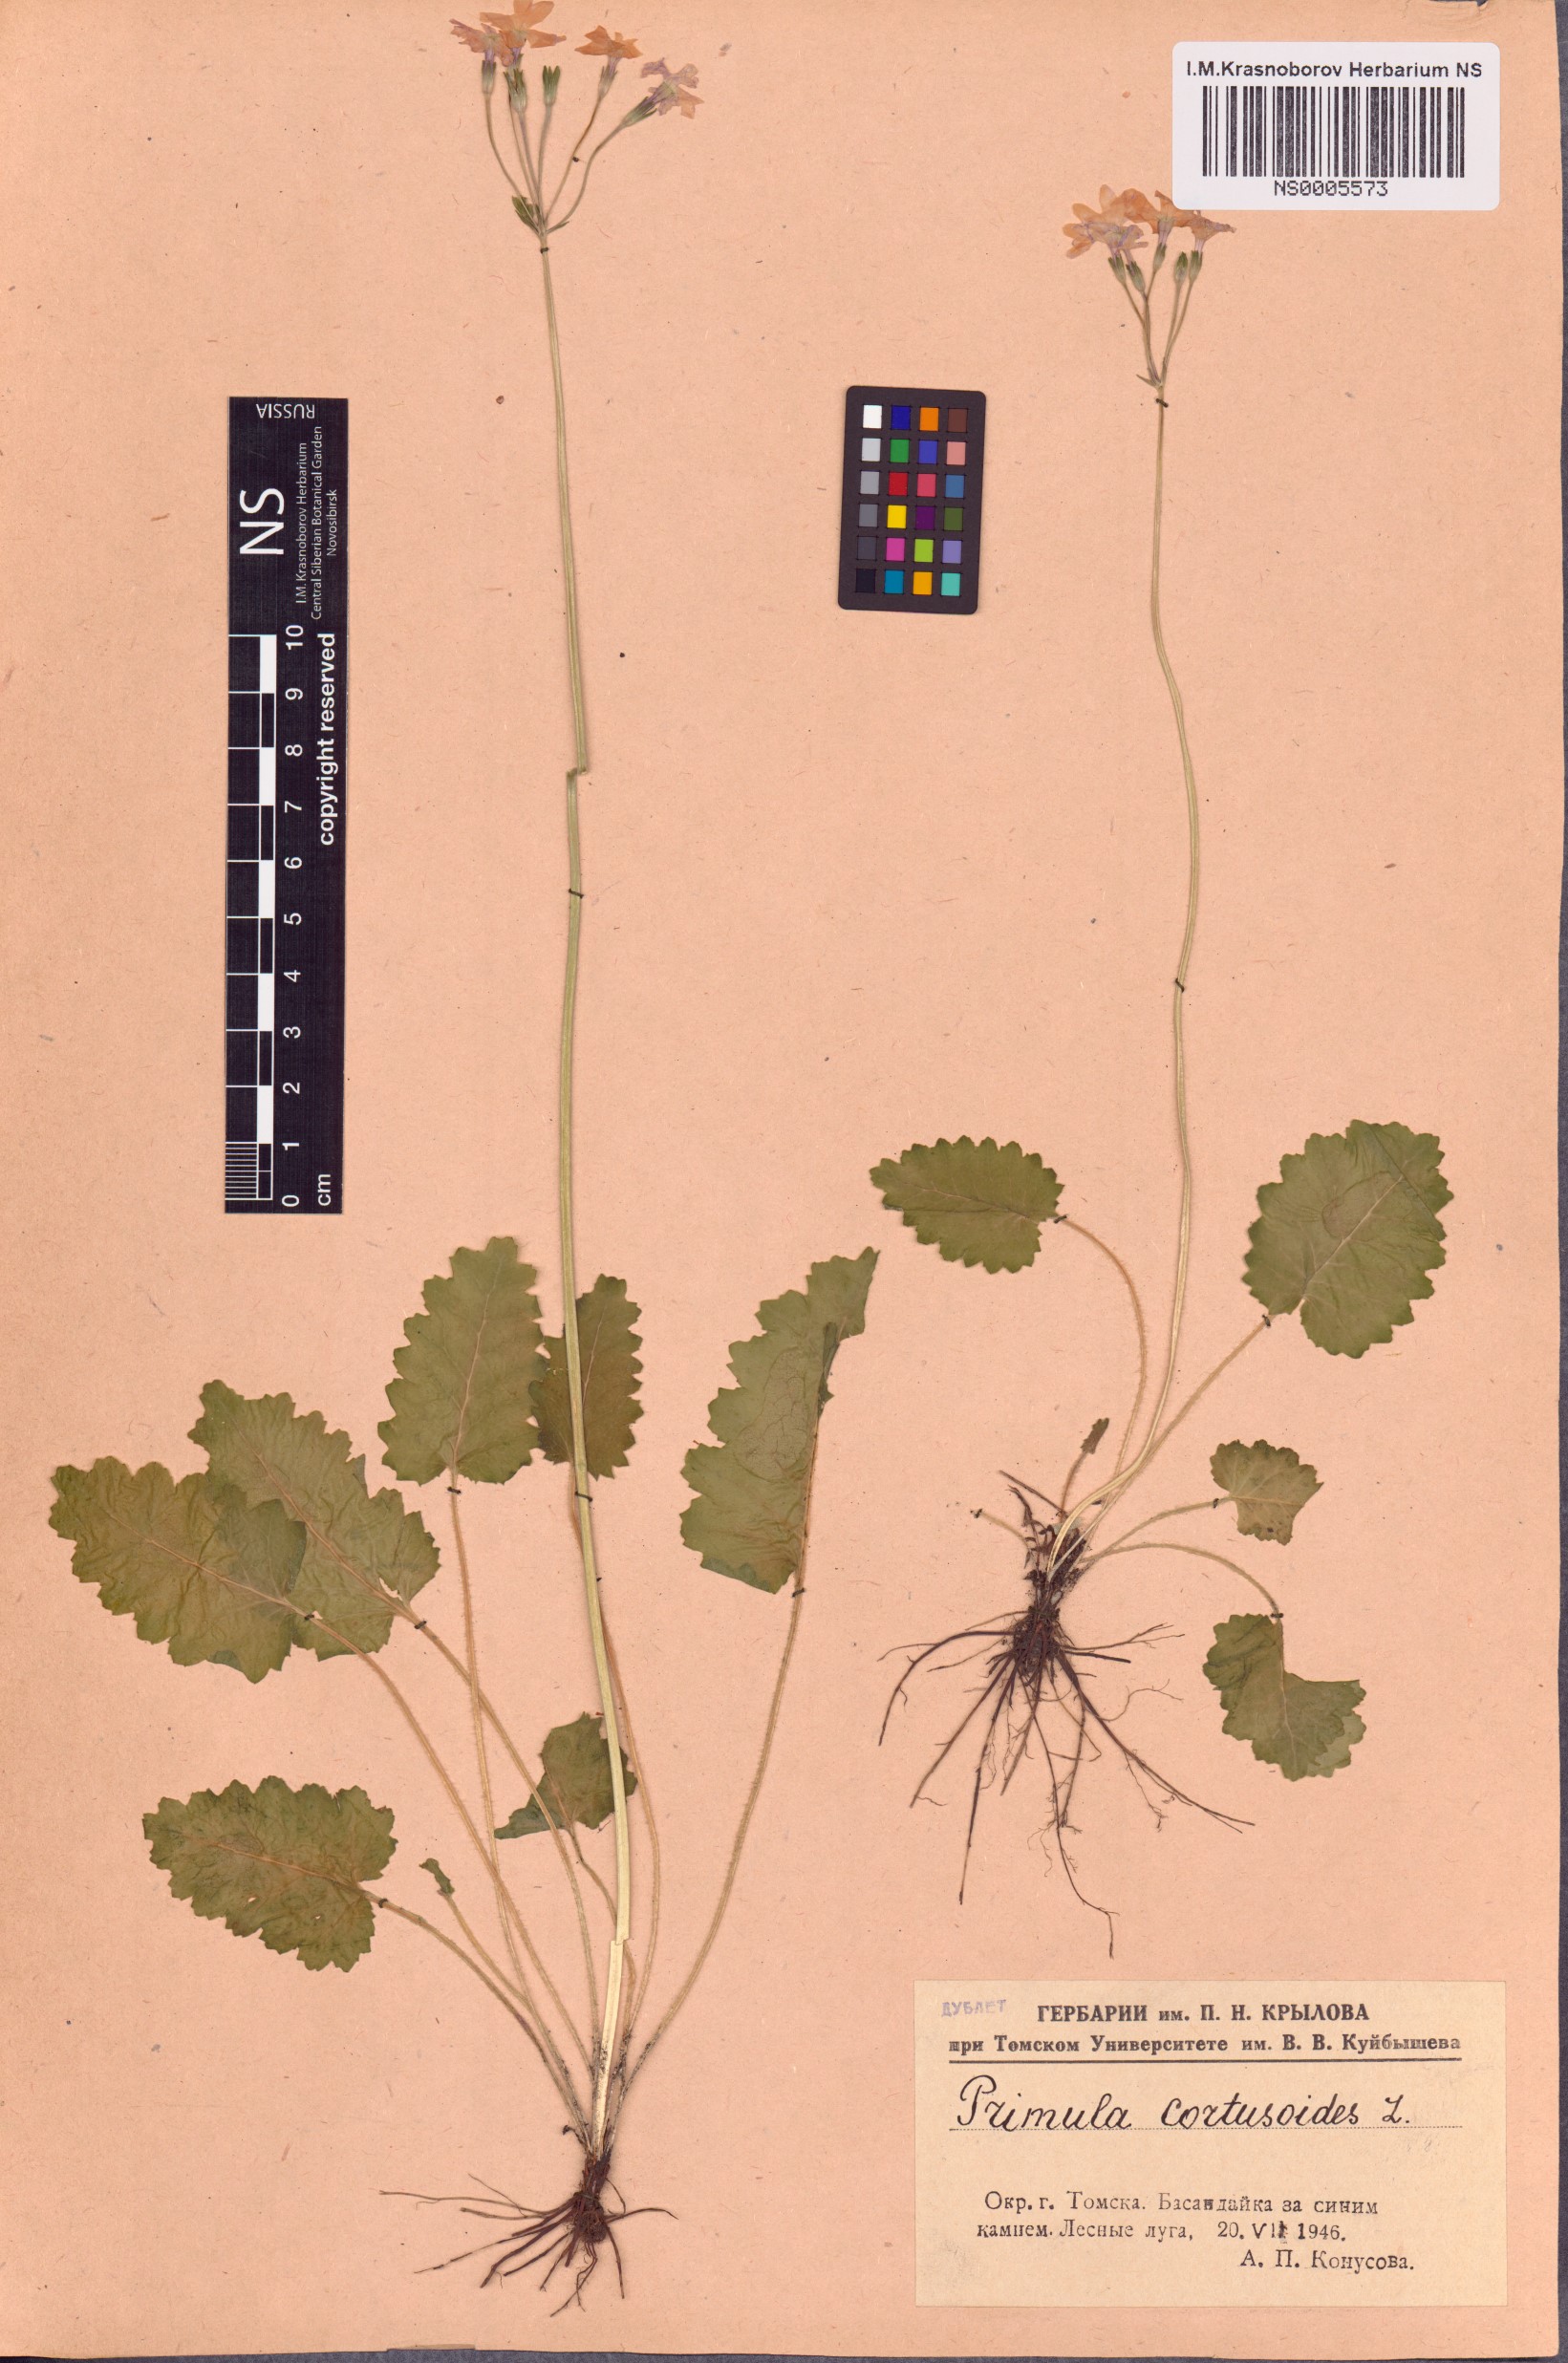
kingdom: Plantae
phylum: Tracheophyta
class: Magnoliopsida
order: Ericales
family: Primulaceae
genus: Primula
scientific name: Primula cortusoides
